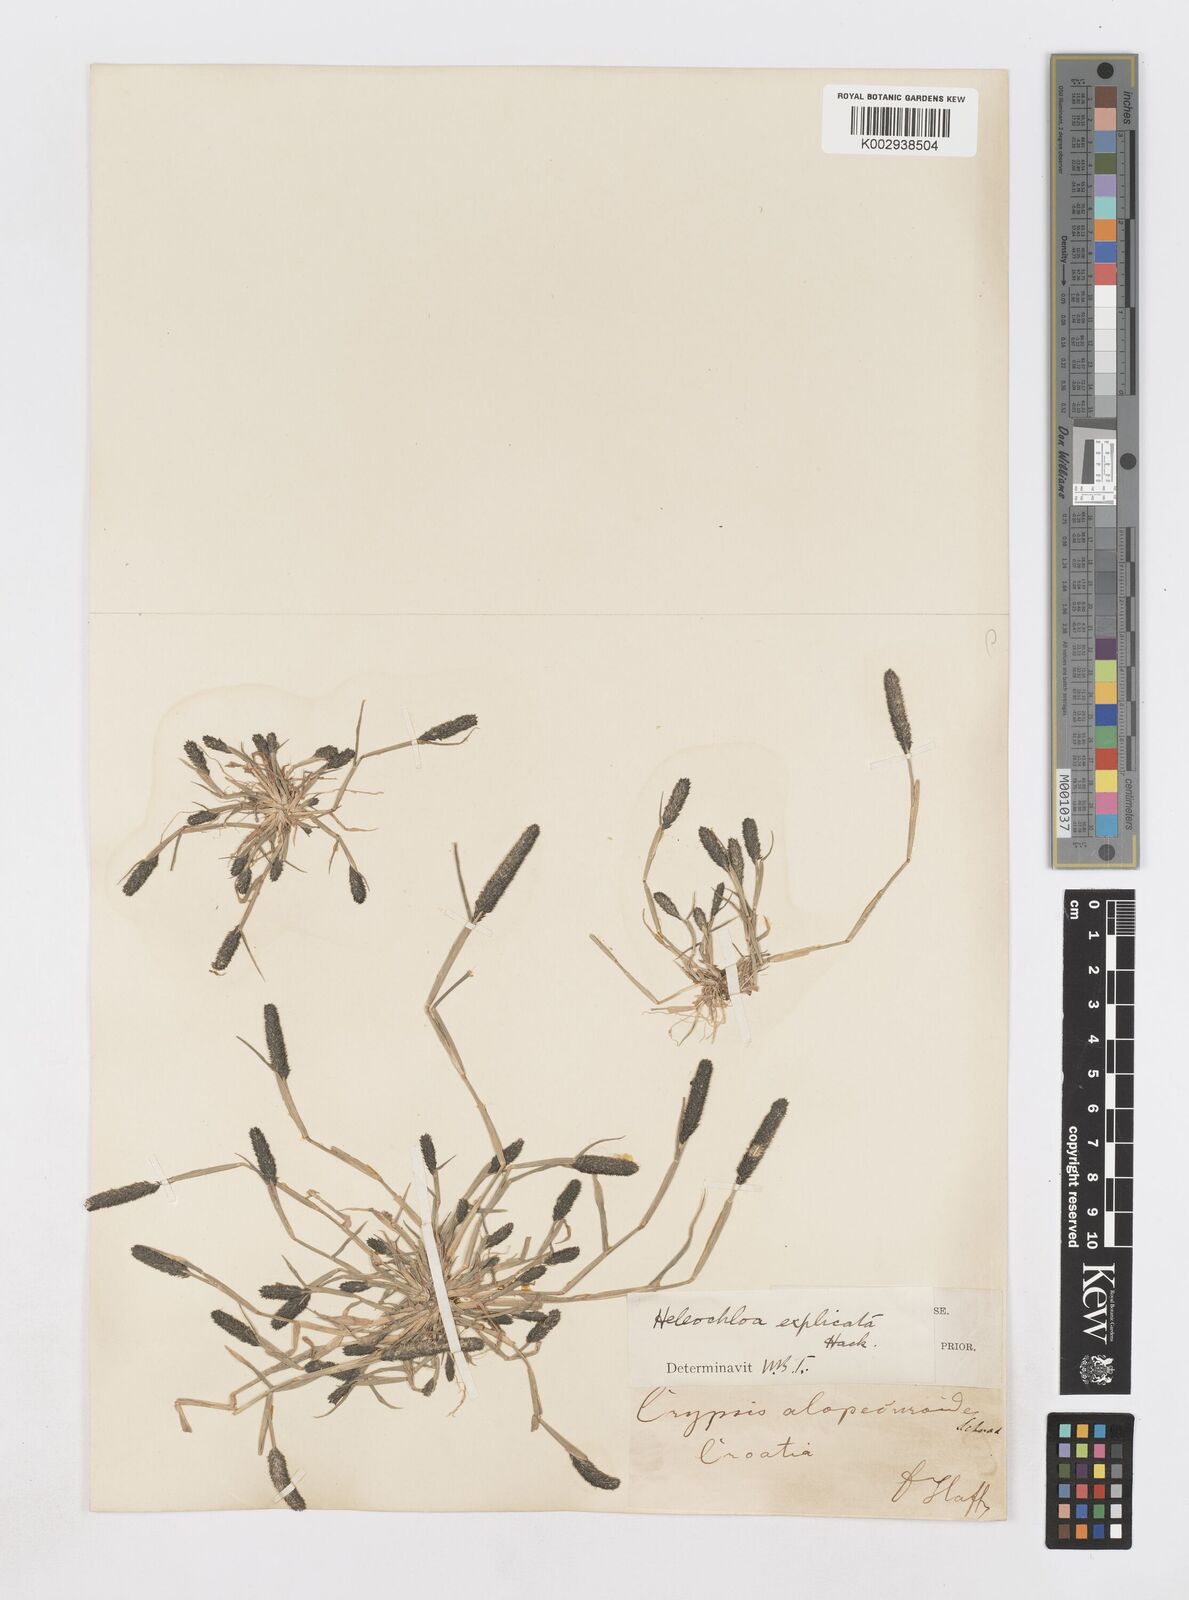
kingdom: Plantae
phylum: Tracheophyta
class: Liliopsida
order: Poales
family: Poaceae
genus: Sporobolus
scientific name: Sporobolus alopecuroides
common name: Foxtail pricklegrass
